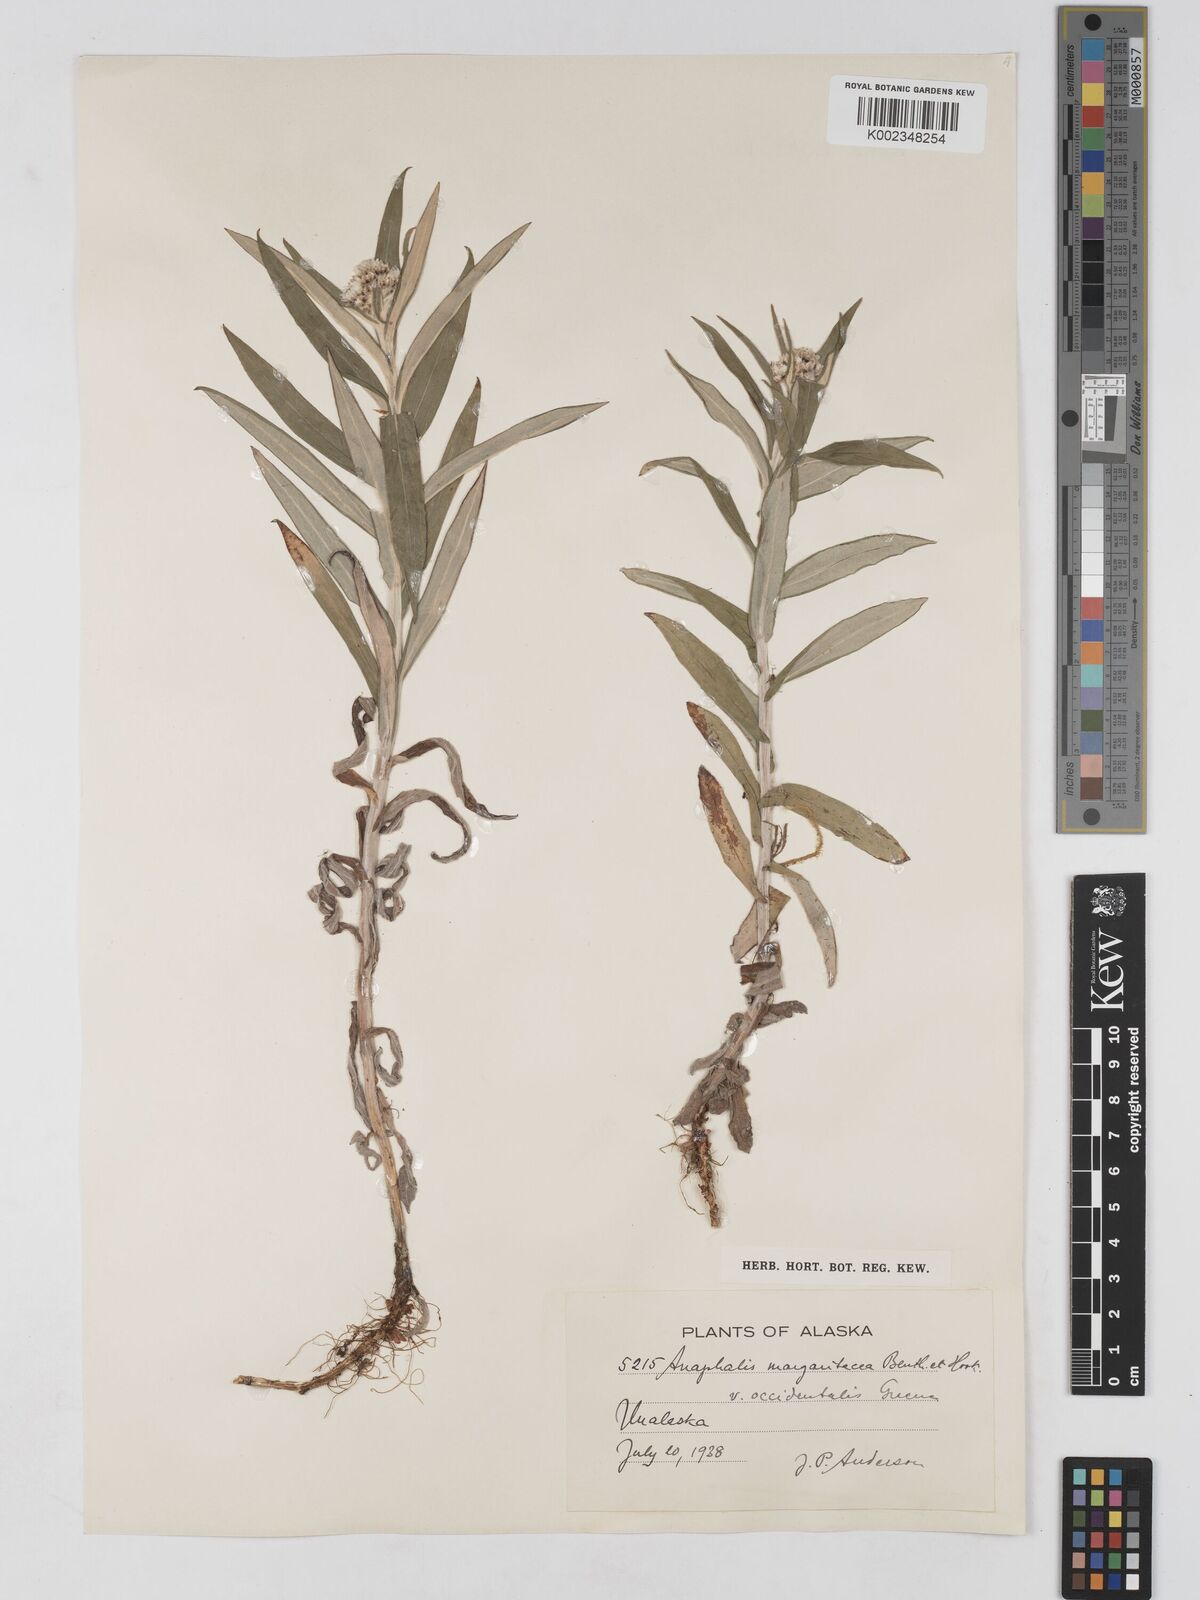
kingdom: Plantae
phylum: Tracheophyta
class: Magnoliopsida
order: Asterales
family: Asteraceae
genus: Anaphalis
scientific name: Anaphalis margaritacea
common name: Pearly everlasting
